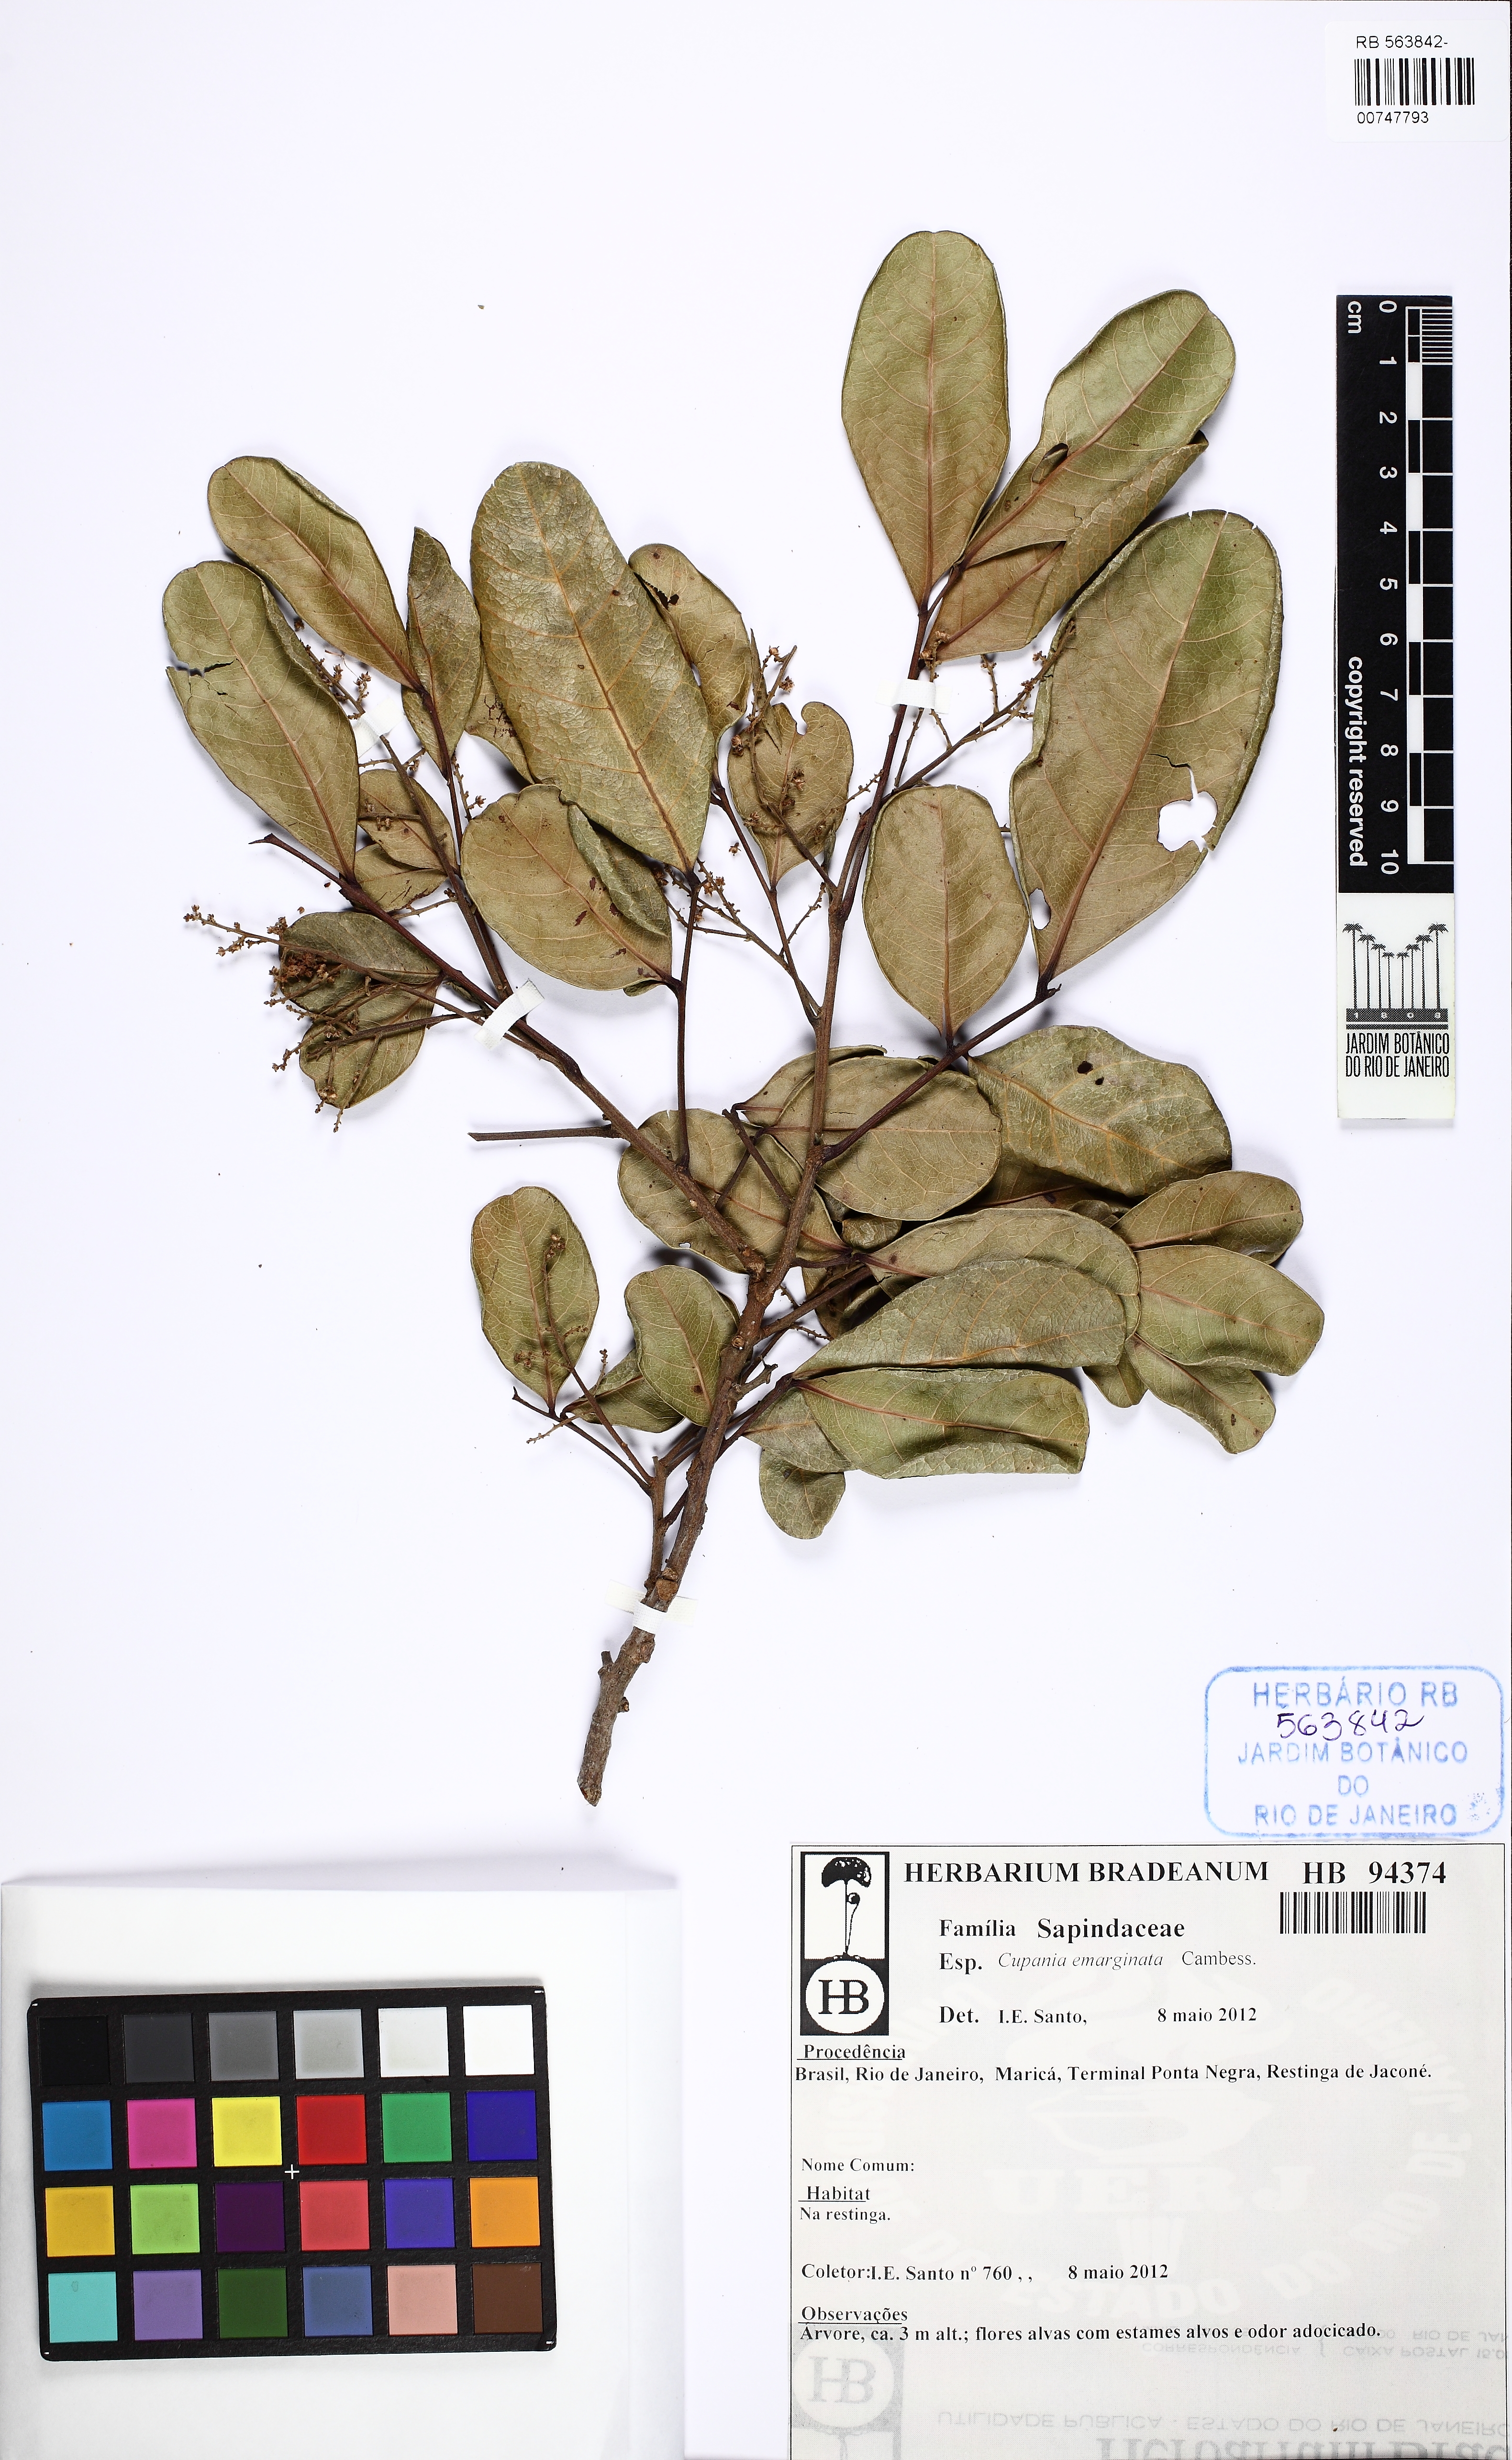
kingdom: Plantae
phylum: Tracheophyta
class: Magnoliopsida
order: Sapindales
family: Sapindaceae
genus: Cupania
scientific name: Cupania emarginata
